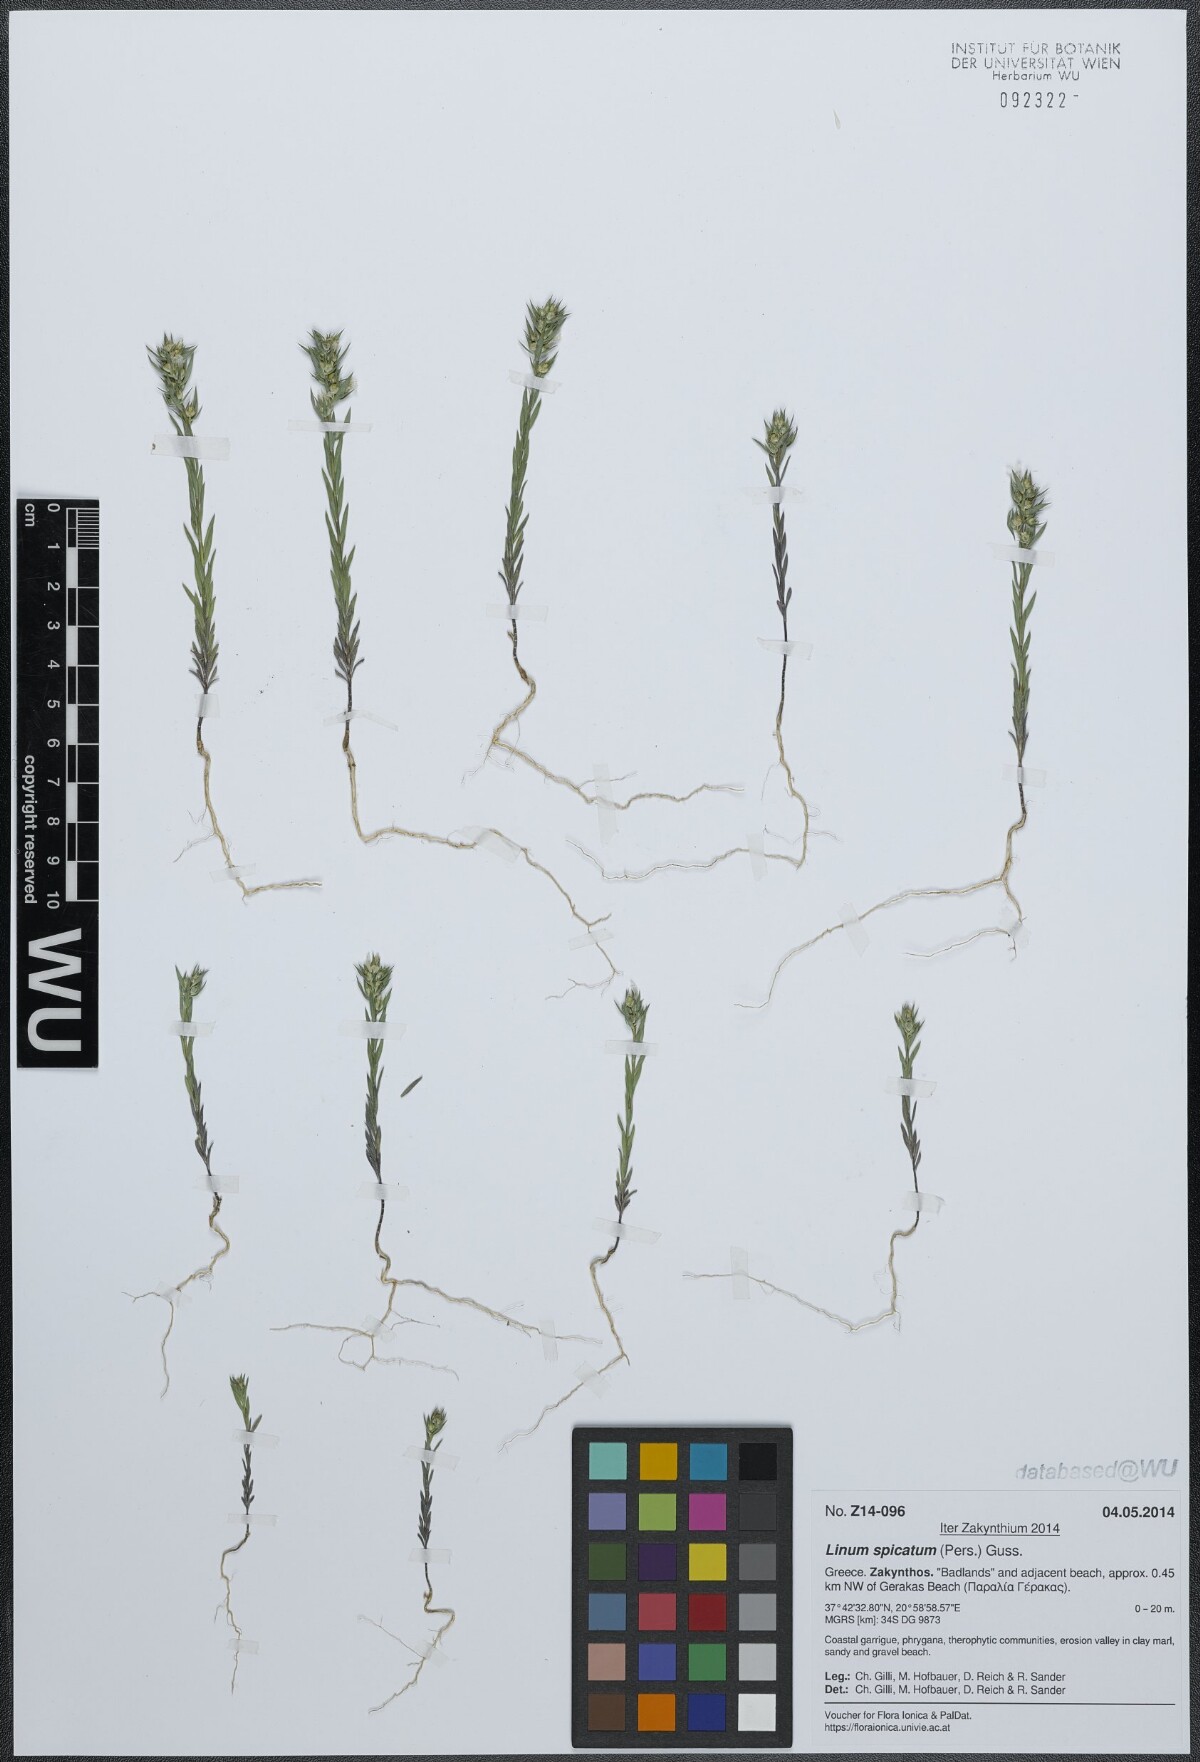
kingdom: Plantae
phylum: Tracheophyta
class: Magnoliopsida
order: Malpighiales
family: Linaceae
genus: Linum
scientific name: Linum strictum
